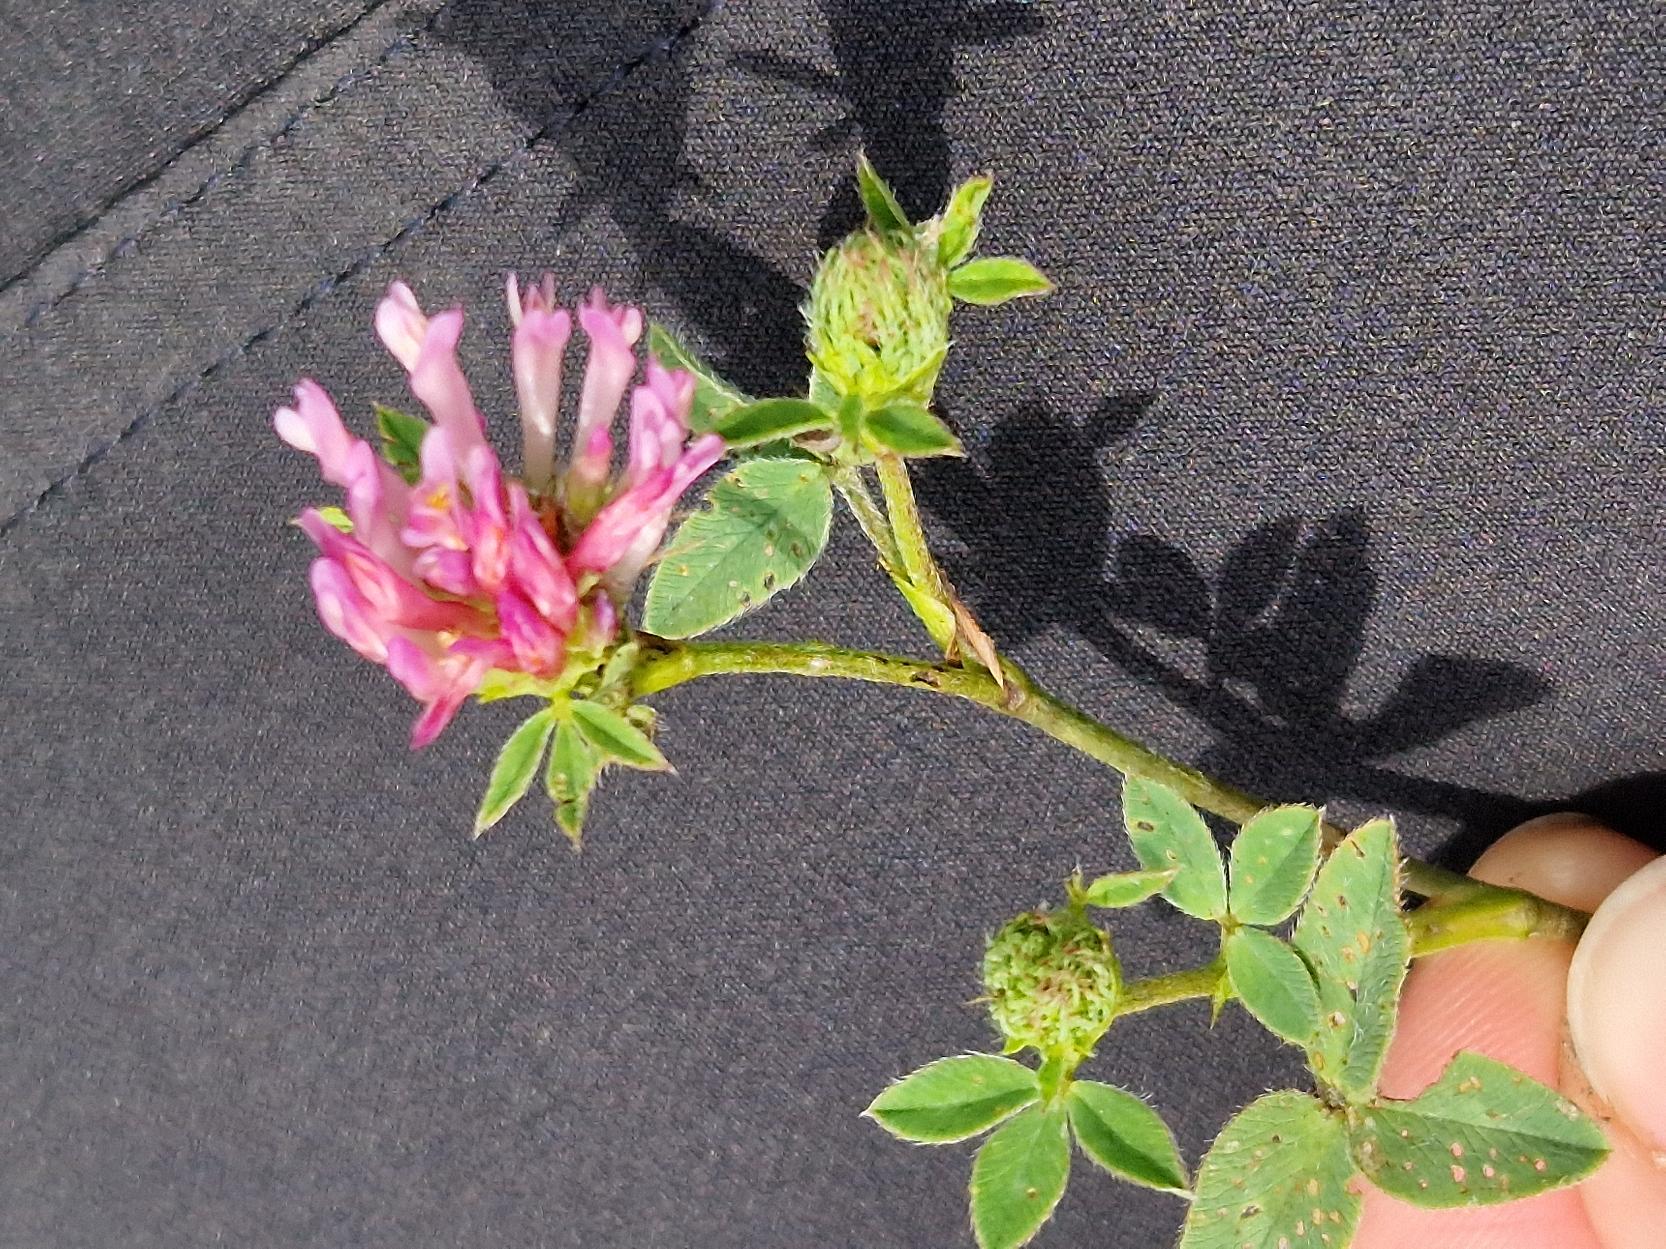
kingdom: Plantae
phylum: Tracheophyta
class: Magnoliopsida
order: Fabales
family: Fabaceae
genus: Trifolium
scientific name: Trifolium pratense
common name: Rød-kløver
